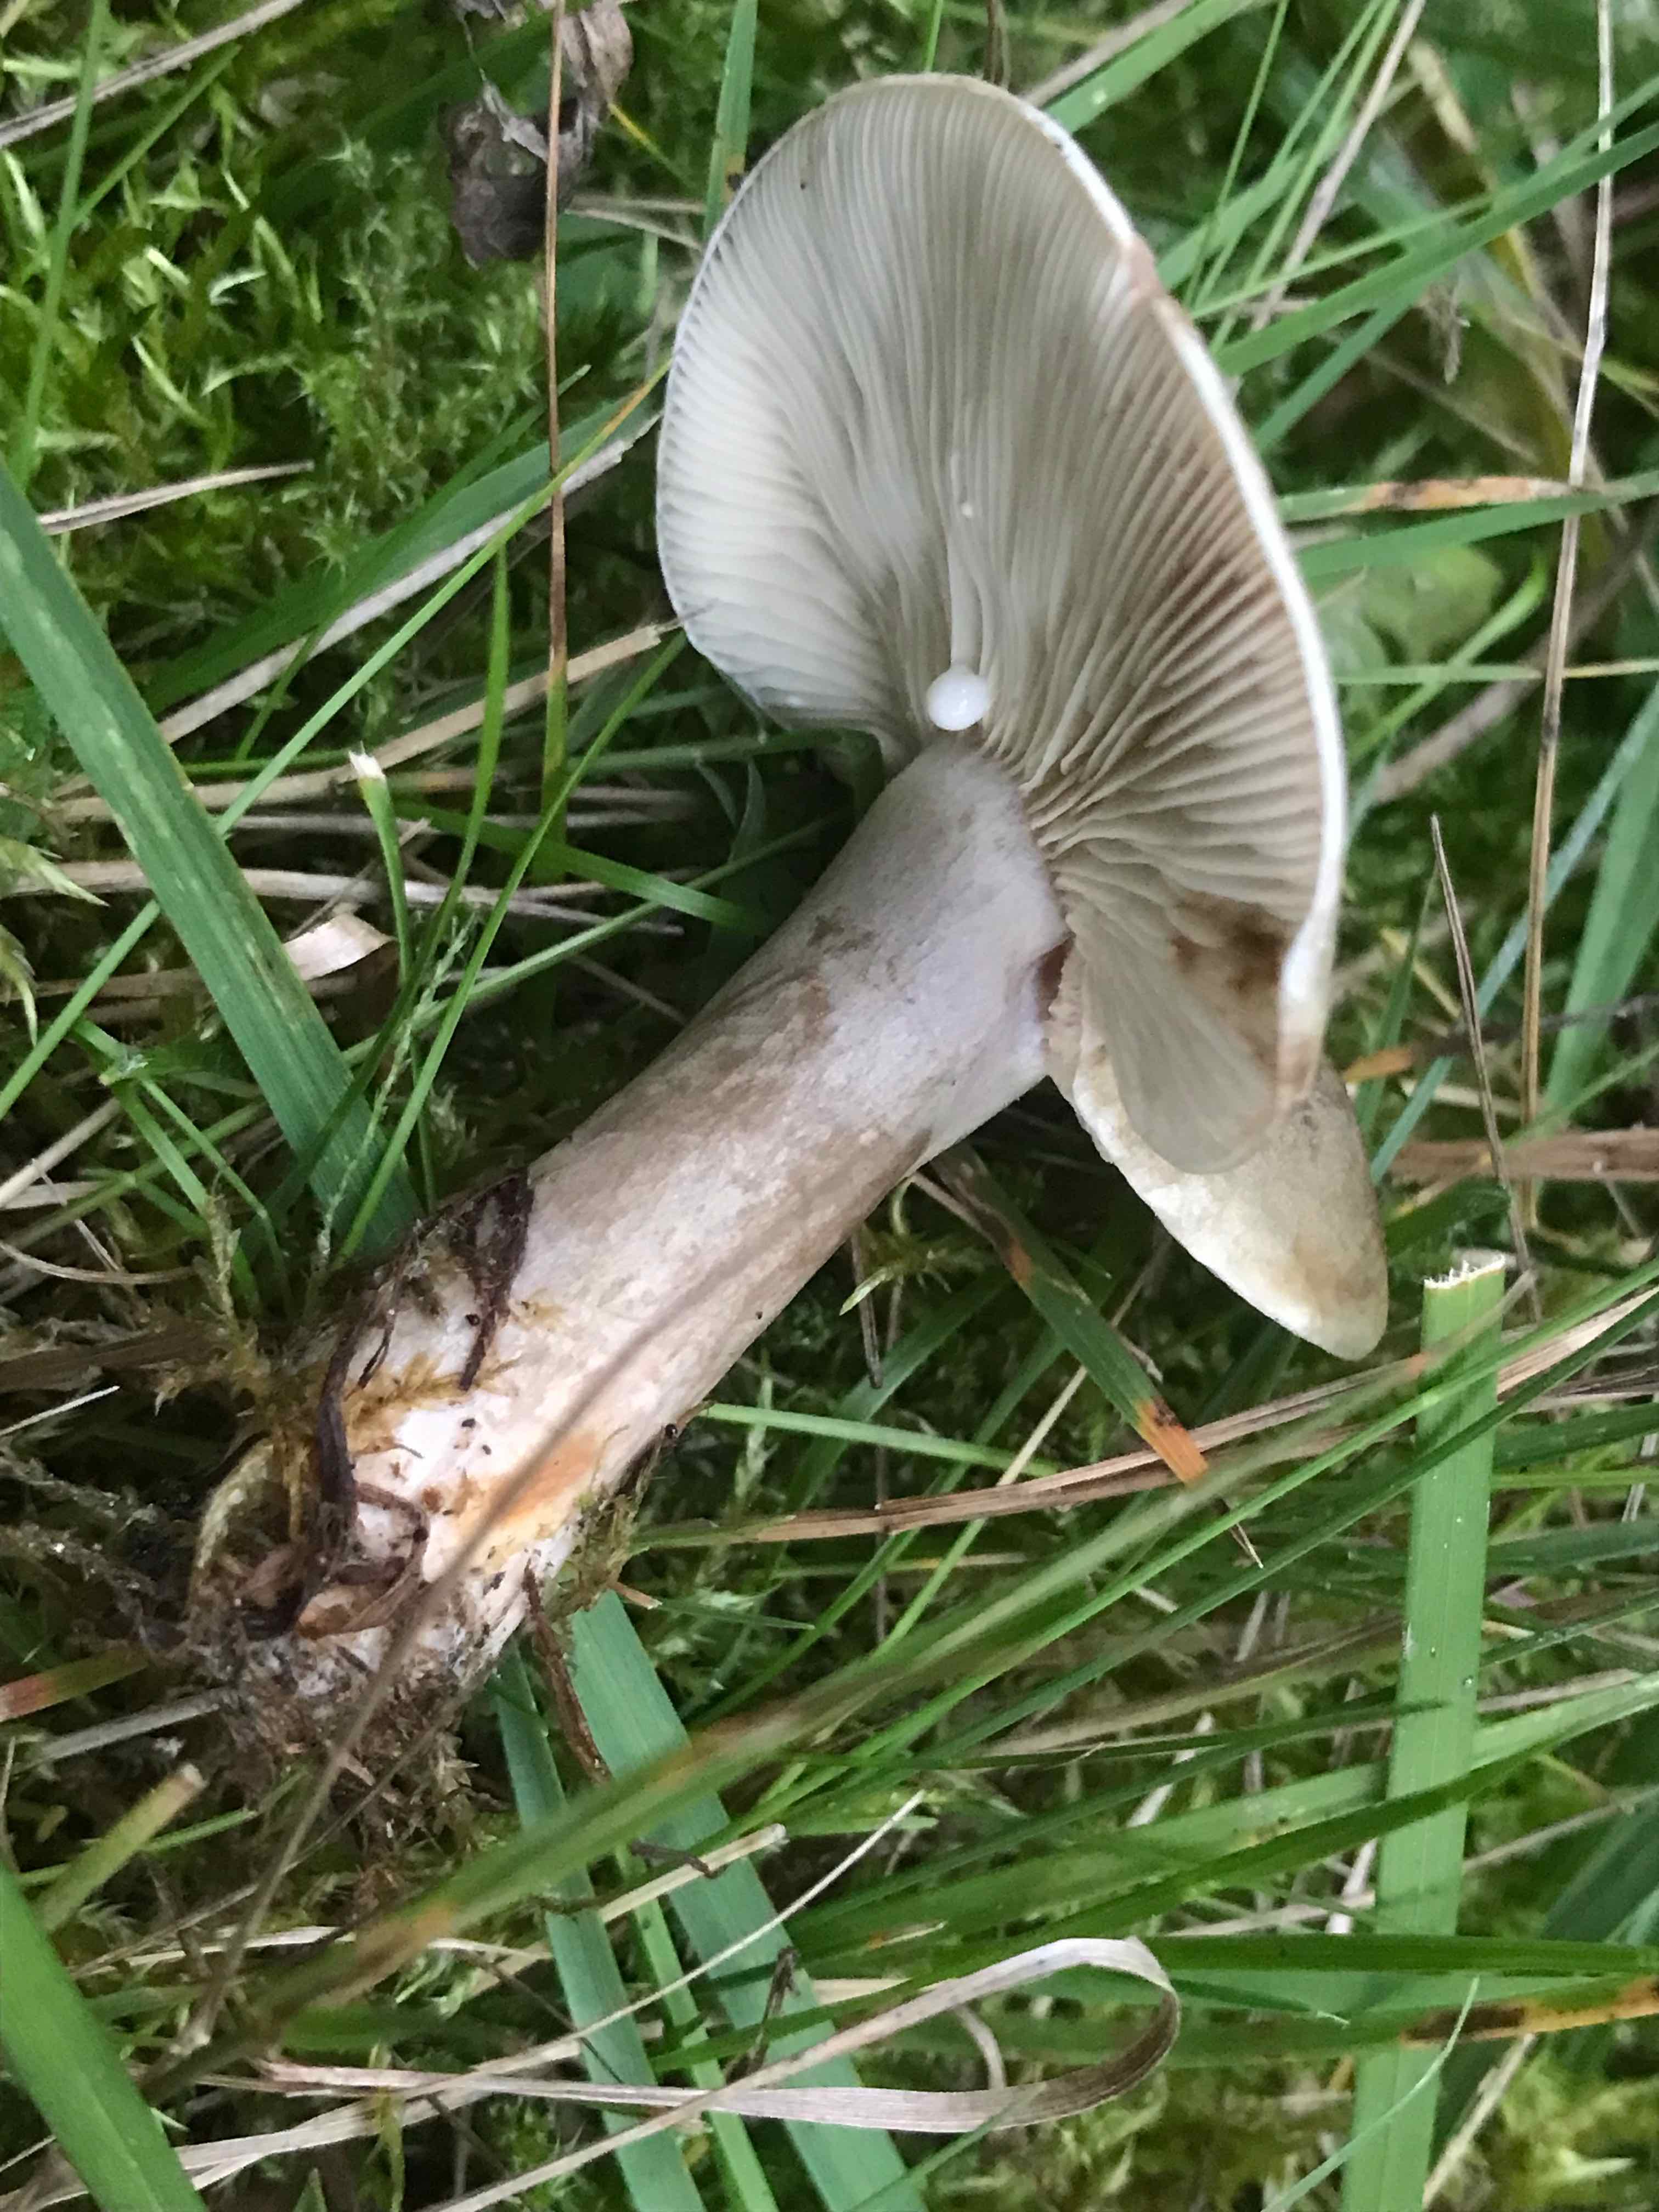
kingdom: Fungi
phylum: Basidiomycota
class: Agaricomycetes
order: Russulales
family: Russulaceae
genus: Lactarius
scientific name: Lactarius fluens
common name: lysrandet mælkehat
